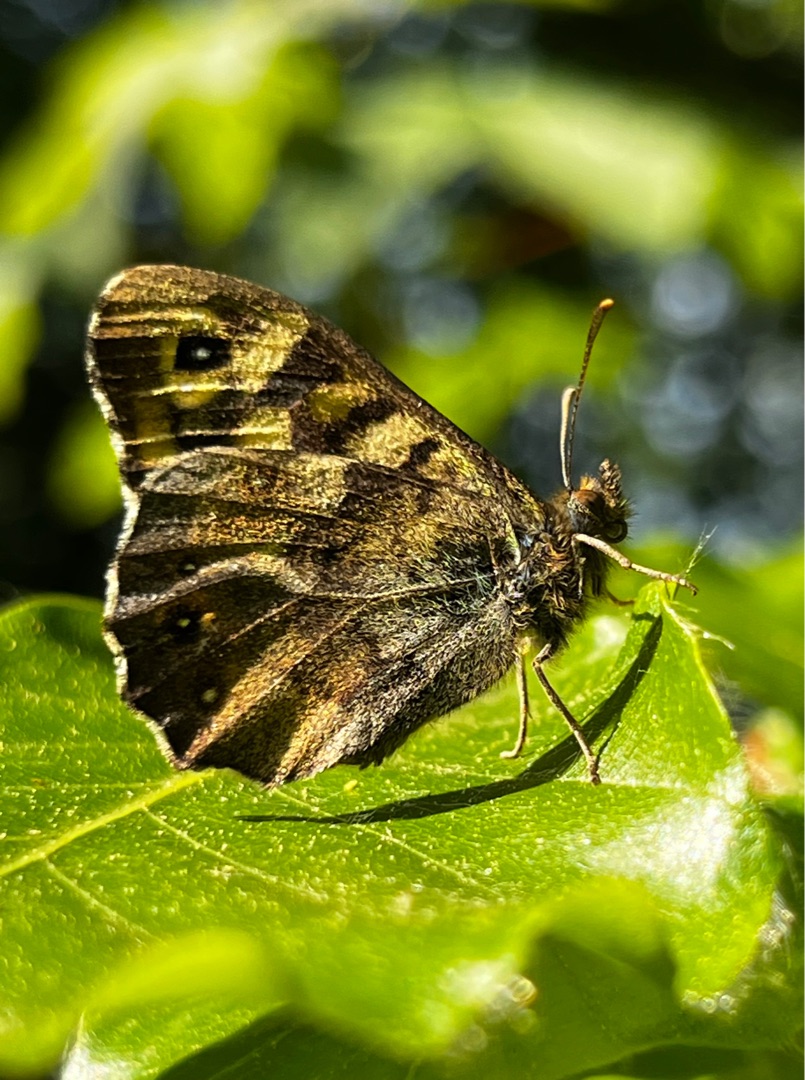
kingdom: Animalia
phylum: Arthropoda
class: Insecta
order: Lepidoptera
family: Nymphalidae
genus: Pararge
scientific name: Pararge aegeria
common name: Skovrandøje
